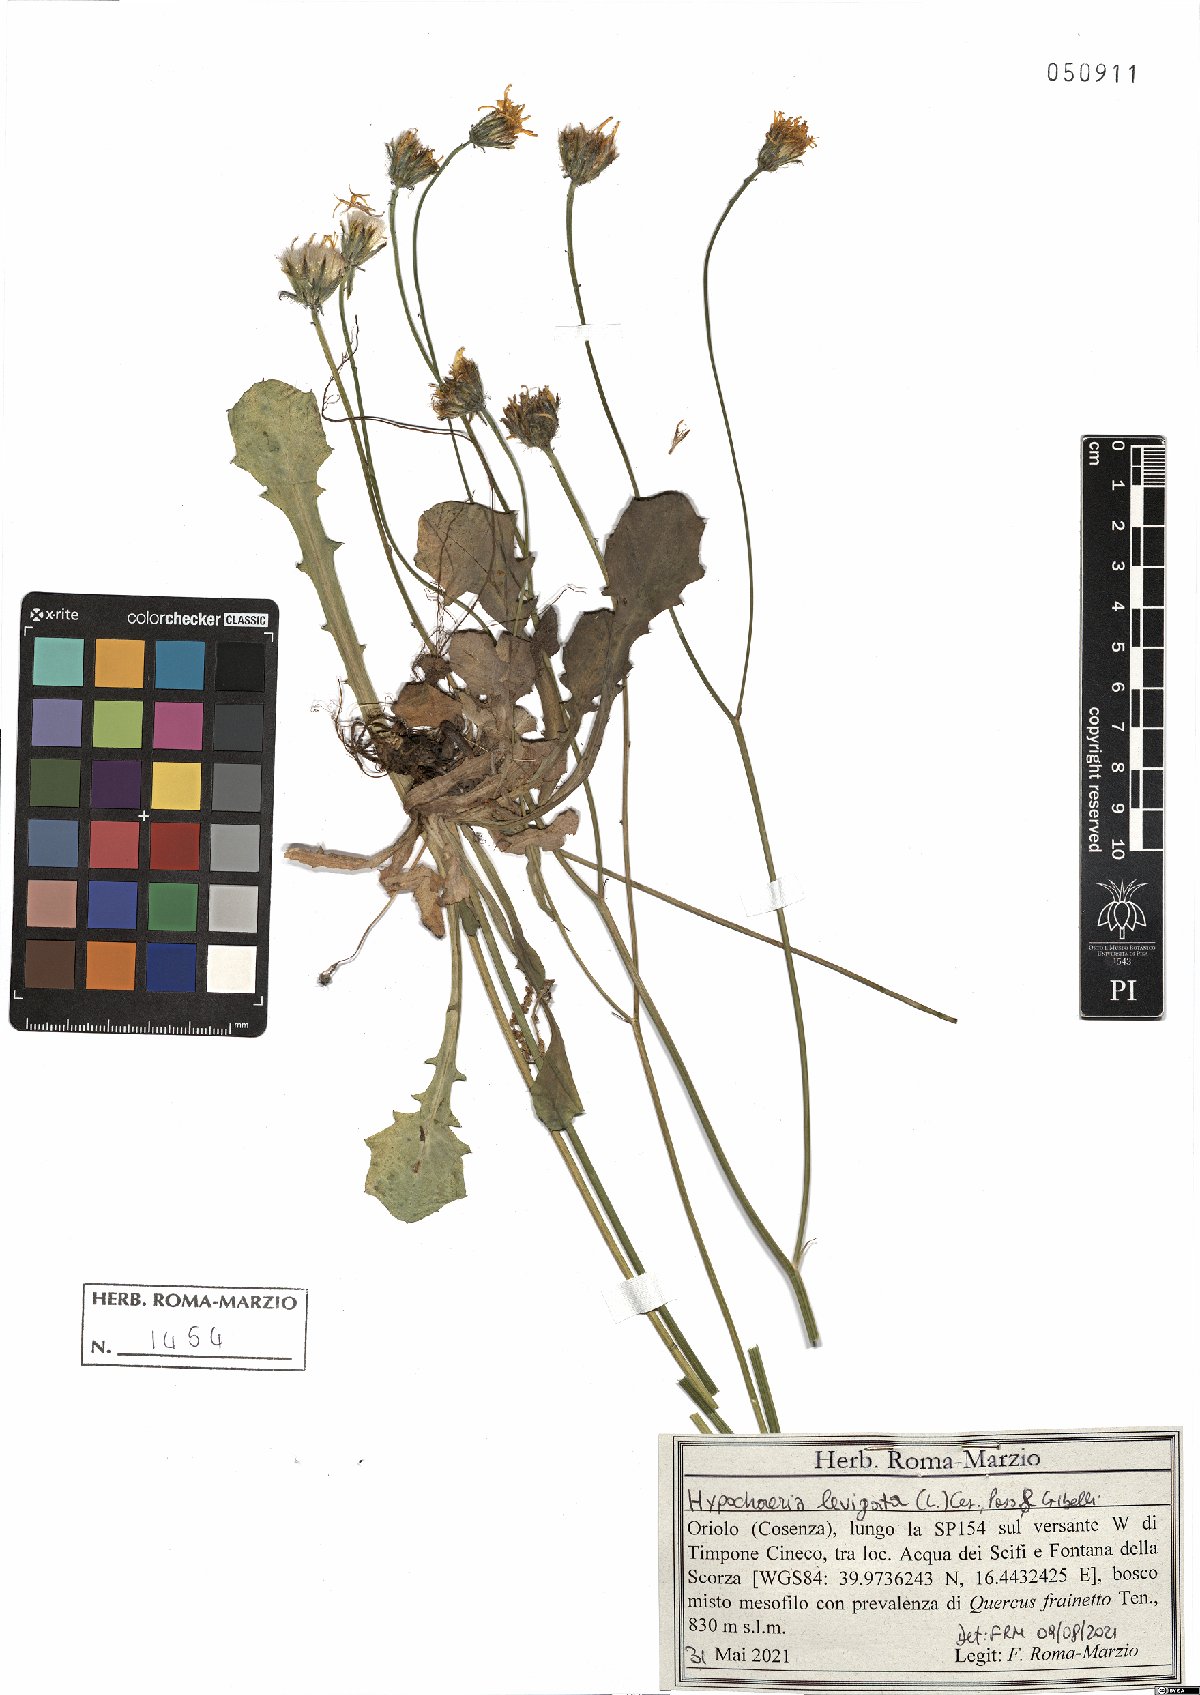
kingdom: Plantae
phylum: Tracheophyta
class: Magnoliopsida
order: Asterales
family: Asteraceae
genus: Achyrophorus
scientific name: Achyrophorus laevigatus
